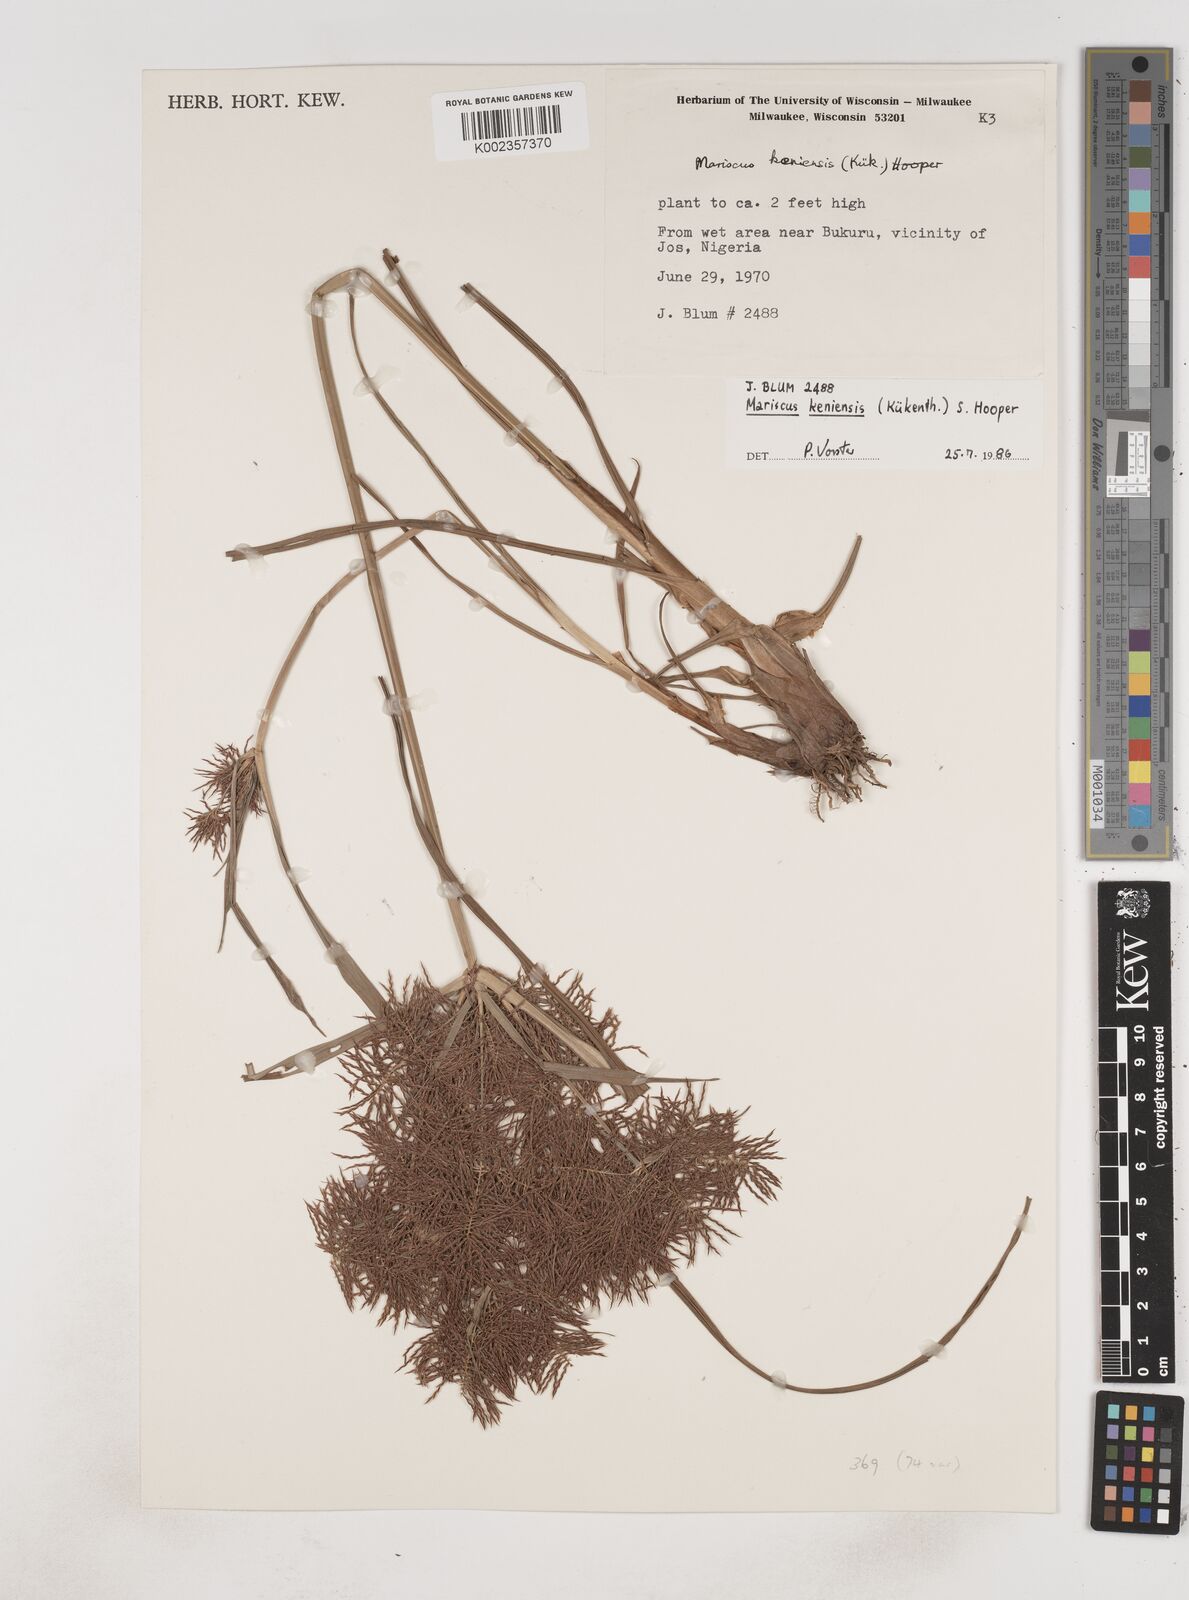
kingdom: Plantae
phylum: Tracheophyta
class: Liliopsida
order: Poales
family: Cyperaceae
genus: Cyperus
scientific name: Cyperus distans
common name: Slender cyperus
